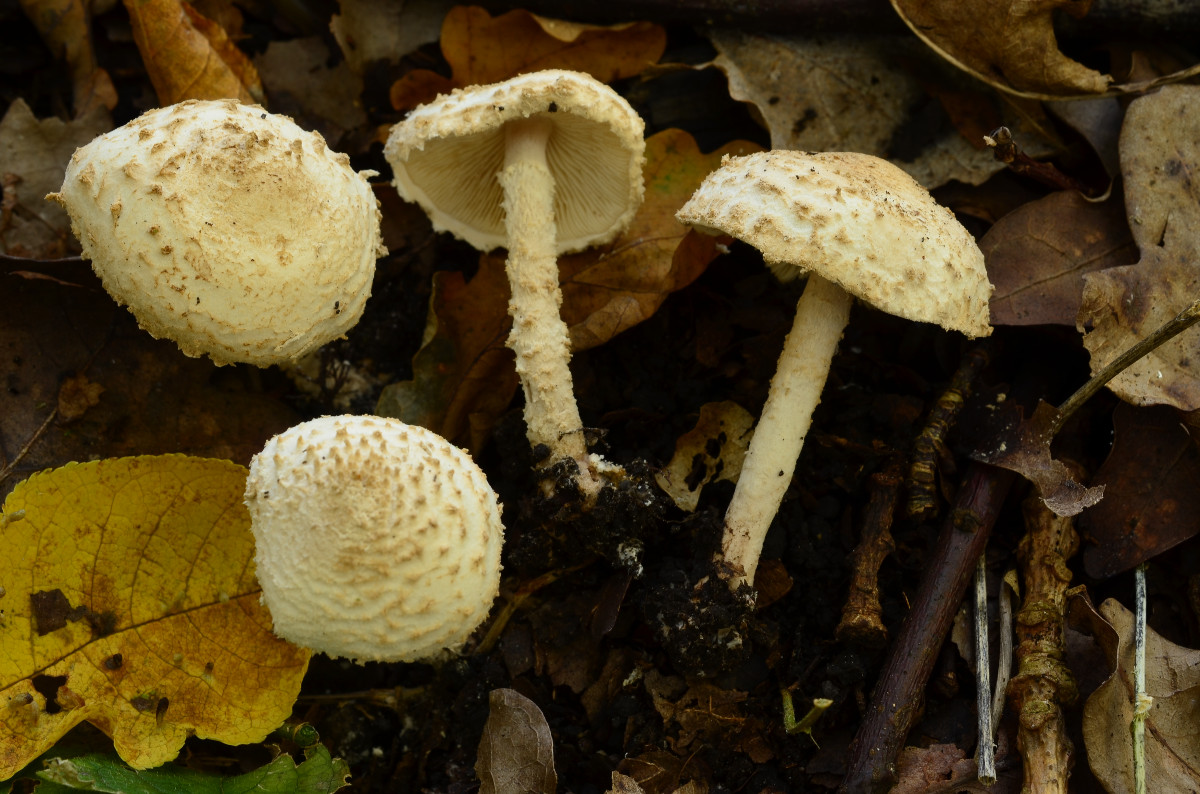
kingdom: Fungi
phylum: Basidiomycota
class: Agaricomycetes
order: Agaricales
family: Agaricaceae
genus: Cystolepiota
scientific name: Cystolepiota
